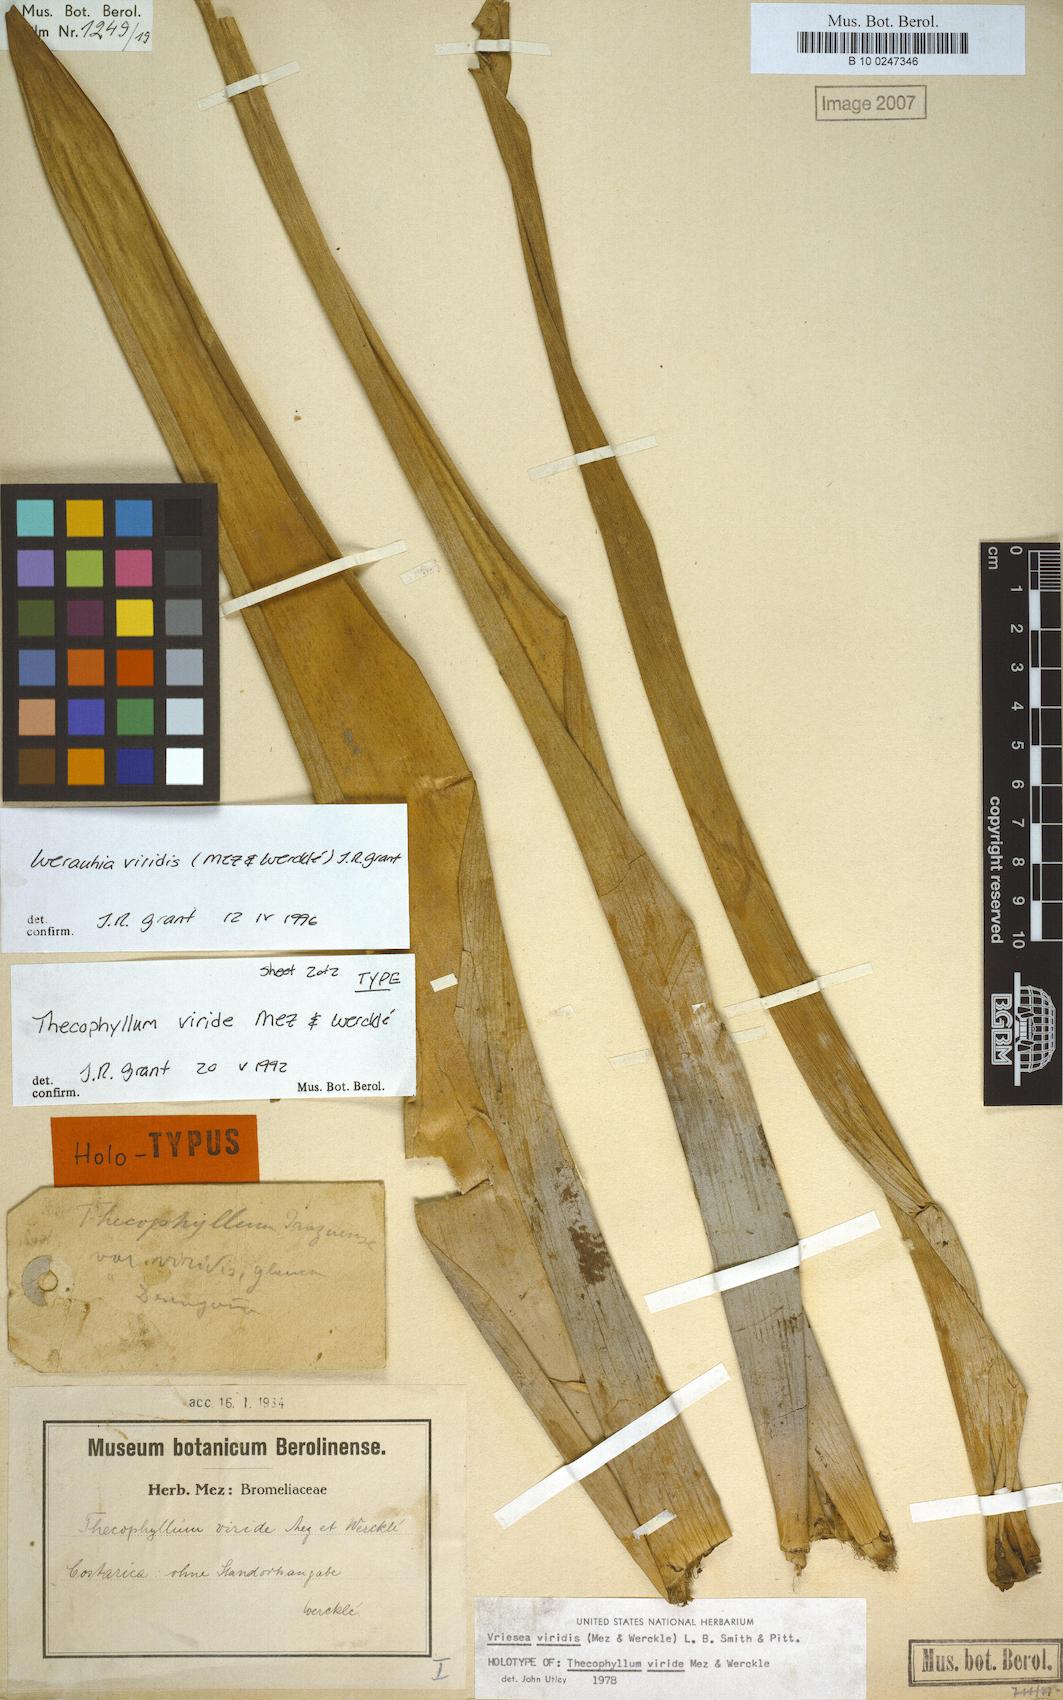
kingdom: Plantae
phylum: Tracheophyta
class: Liliopsida
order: Poales
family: Bromeliaceae
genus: Werauhia
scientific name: Werauhia viridis
